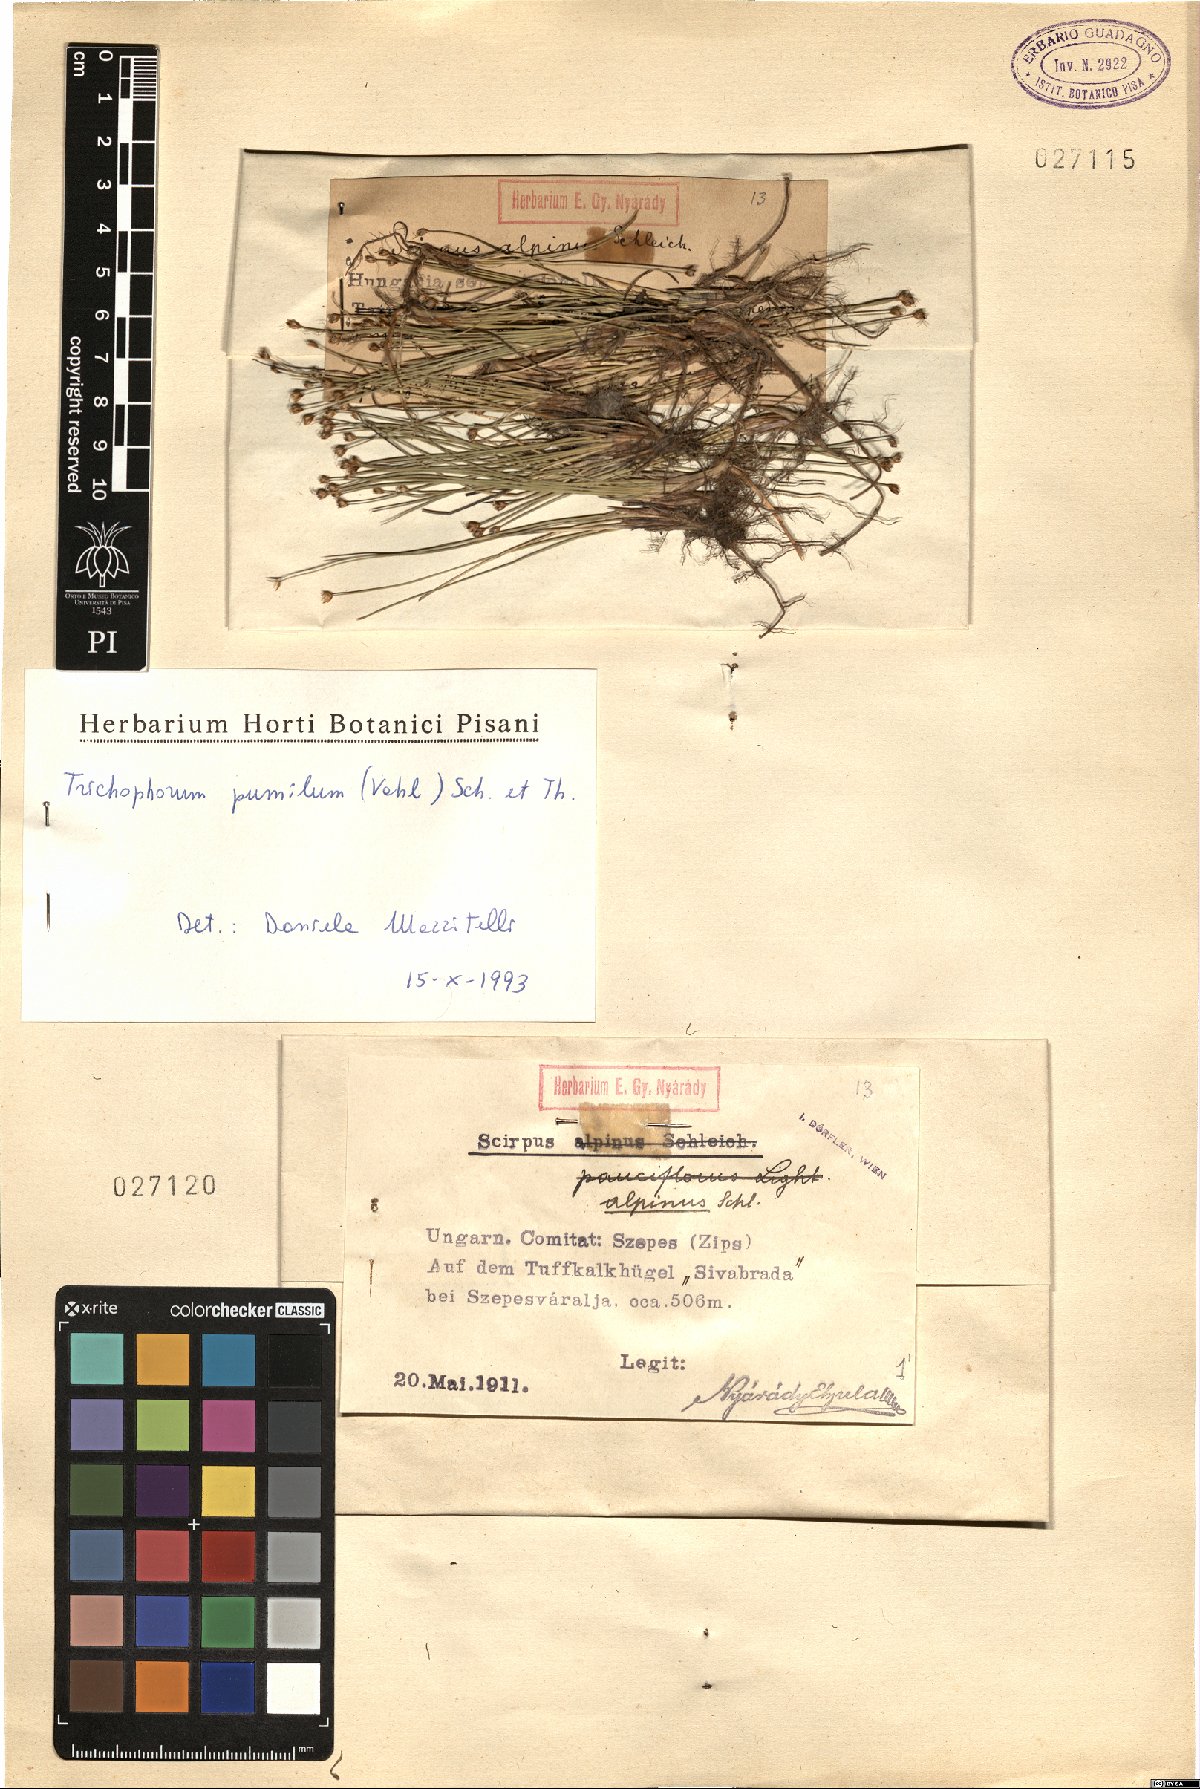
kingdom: Plantae
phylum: Tracheophyta
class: Liliopsida
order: Poales
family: Cyperaceae
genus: Trichophorum
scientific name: Trichophorum pumilum
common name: Rolland's bulrush
